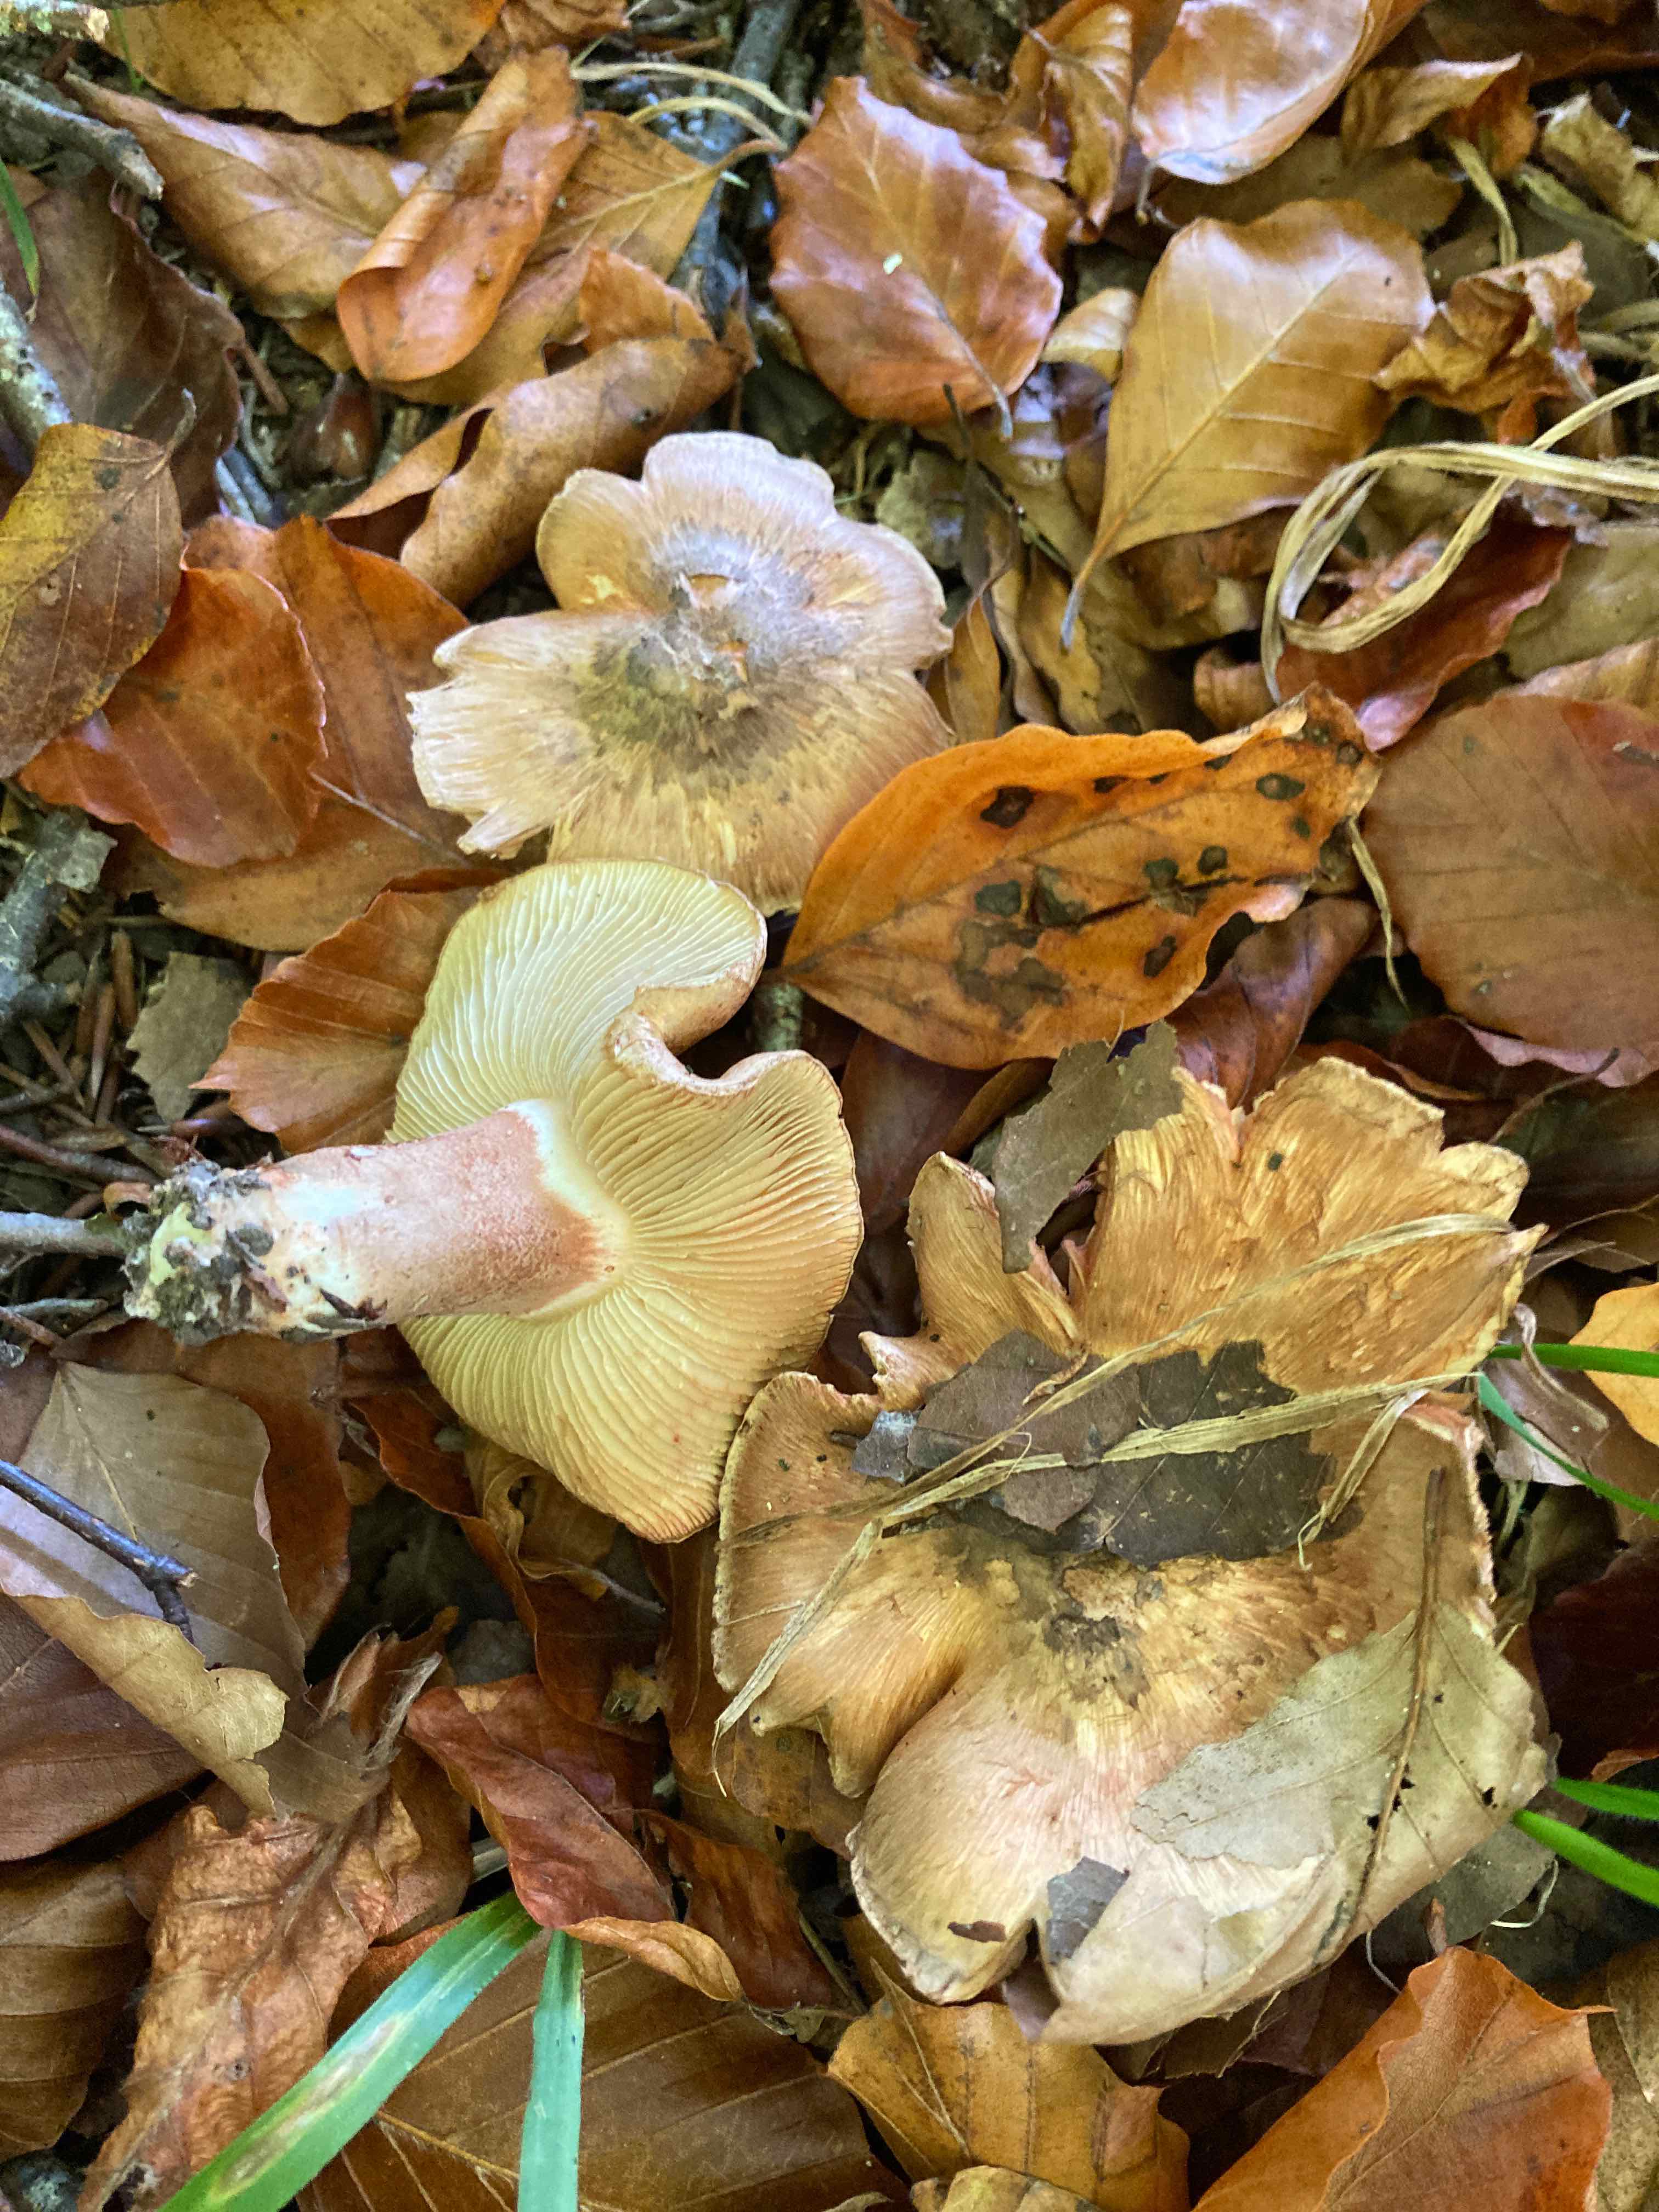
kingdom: Fungi
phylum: Basidiomycota
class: Agaricomycetes
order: Agaricales
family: Inocybaceae
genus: Inocybe
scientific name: Inocybe incarnata
